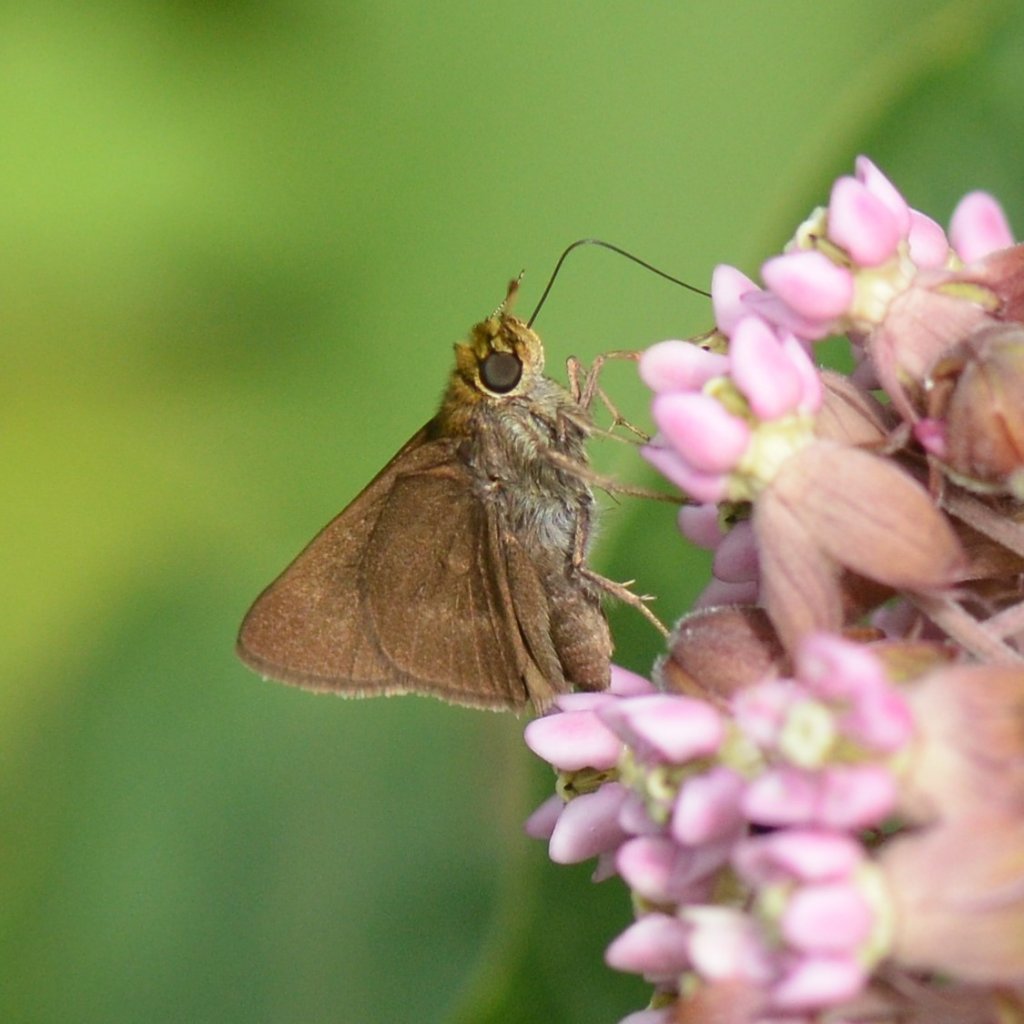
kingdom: Animalia
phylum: Arthropoda
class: Insecta
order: Lepidoptera
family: Hesperiidae
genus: Euphyes
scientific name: Euphyes vestris
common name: Dun Skipper
